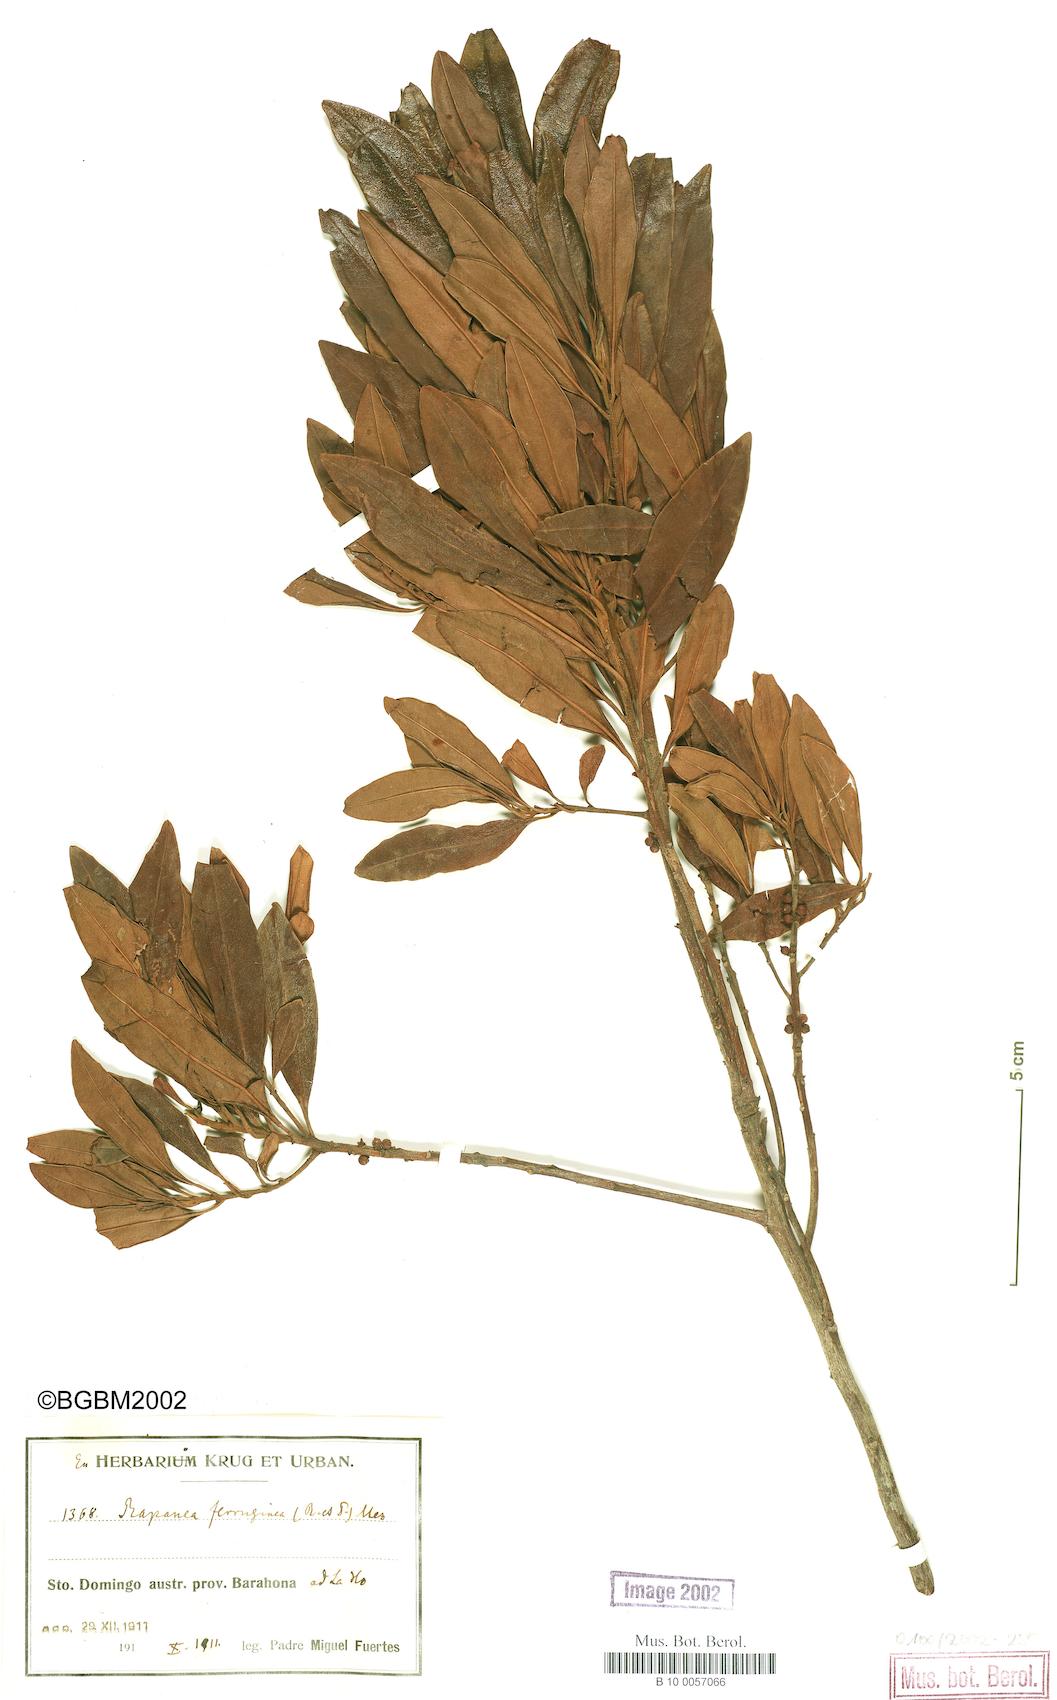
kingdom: Plantae
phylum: Tracheophyta
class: Magnoliopsida
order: Ericales
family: Primulaceae
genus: Myrsine
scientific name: Myrsine coriacea
